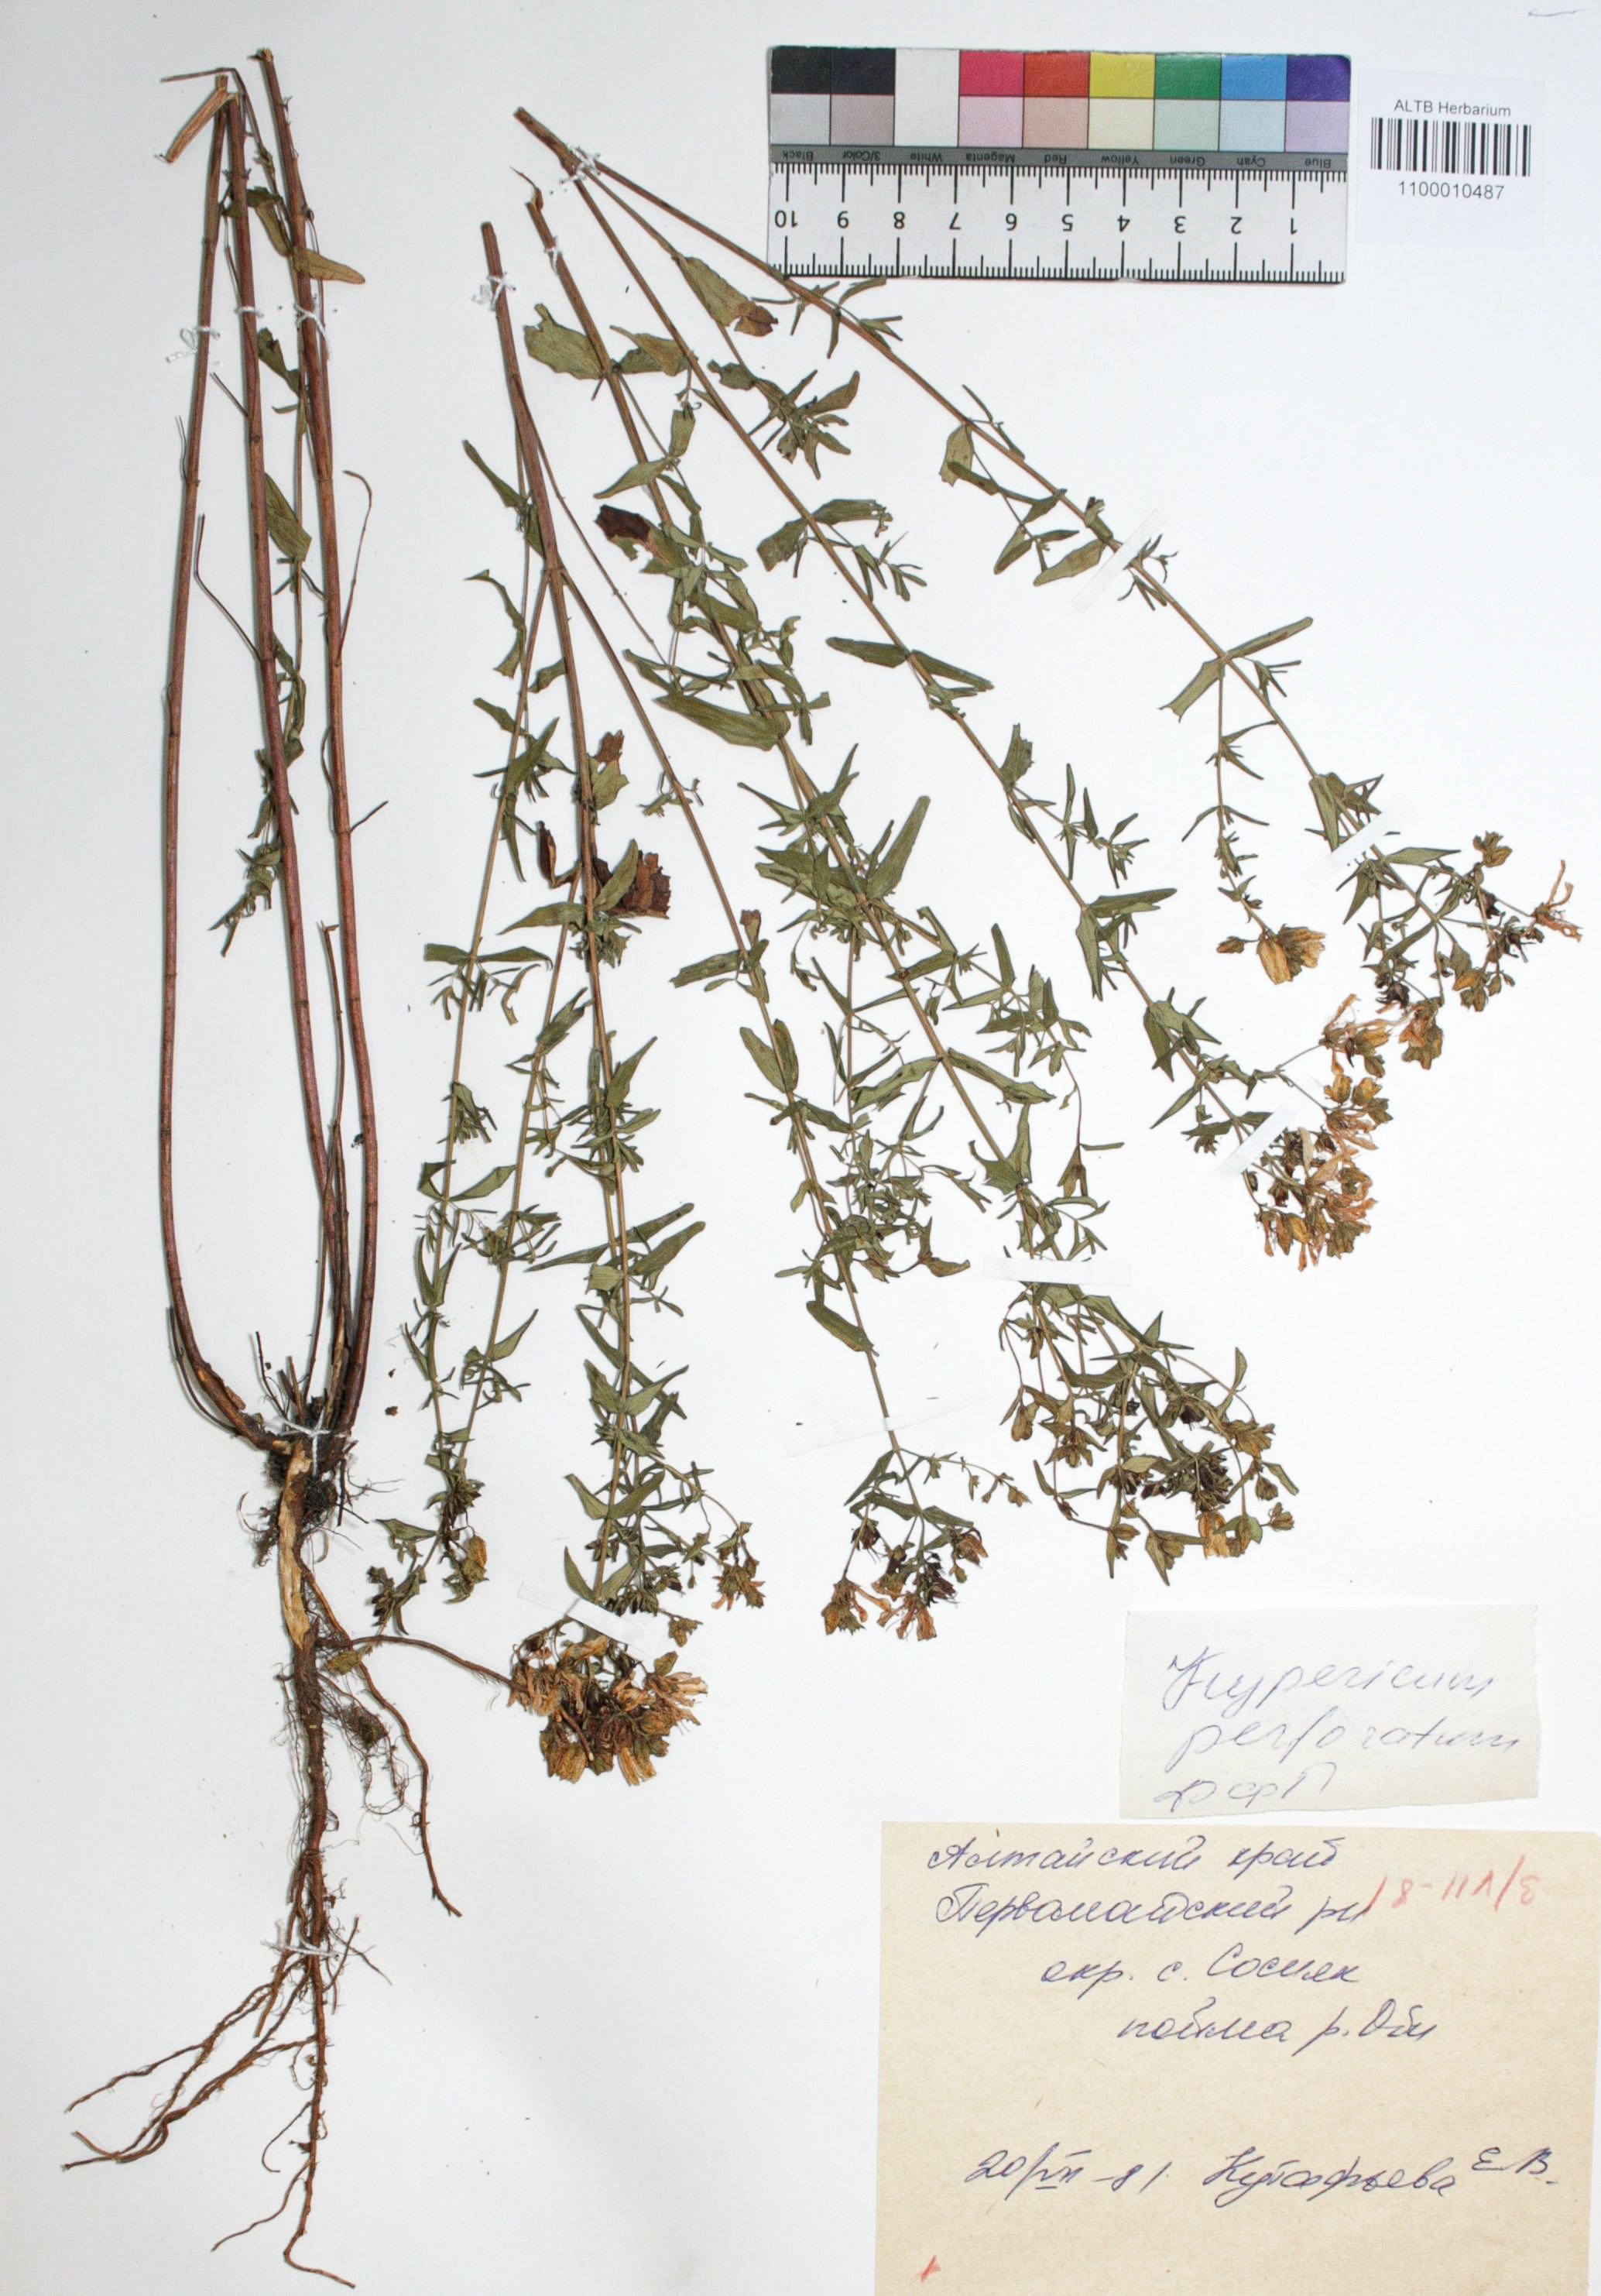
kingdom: Plantae
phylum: Tracheophyta
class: Magnoliopsida
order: Malpighiales
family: Hypericaceae
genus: Hypericum
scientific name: Hypericum perforatum
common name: Common st. johnswort
